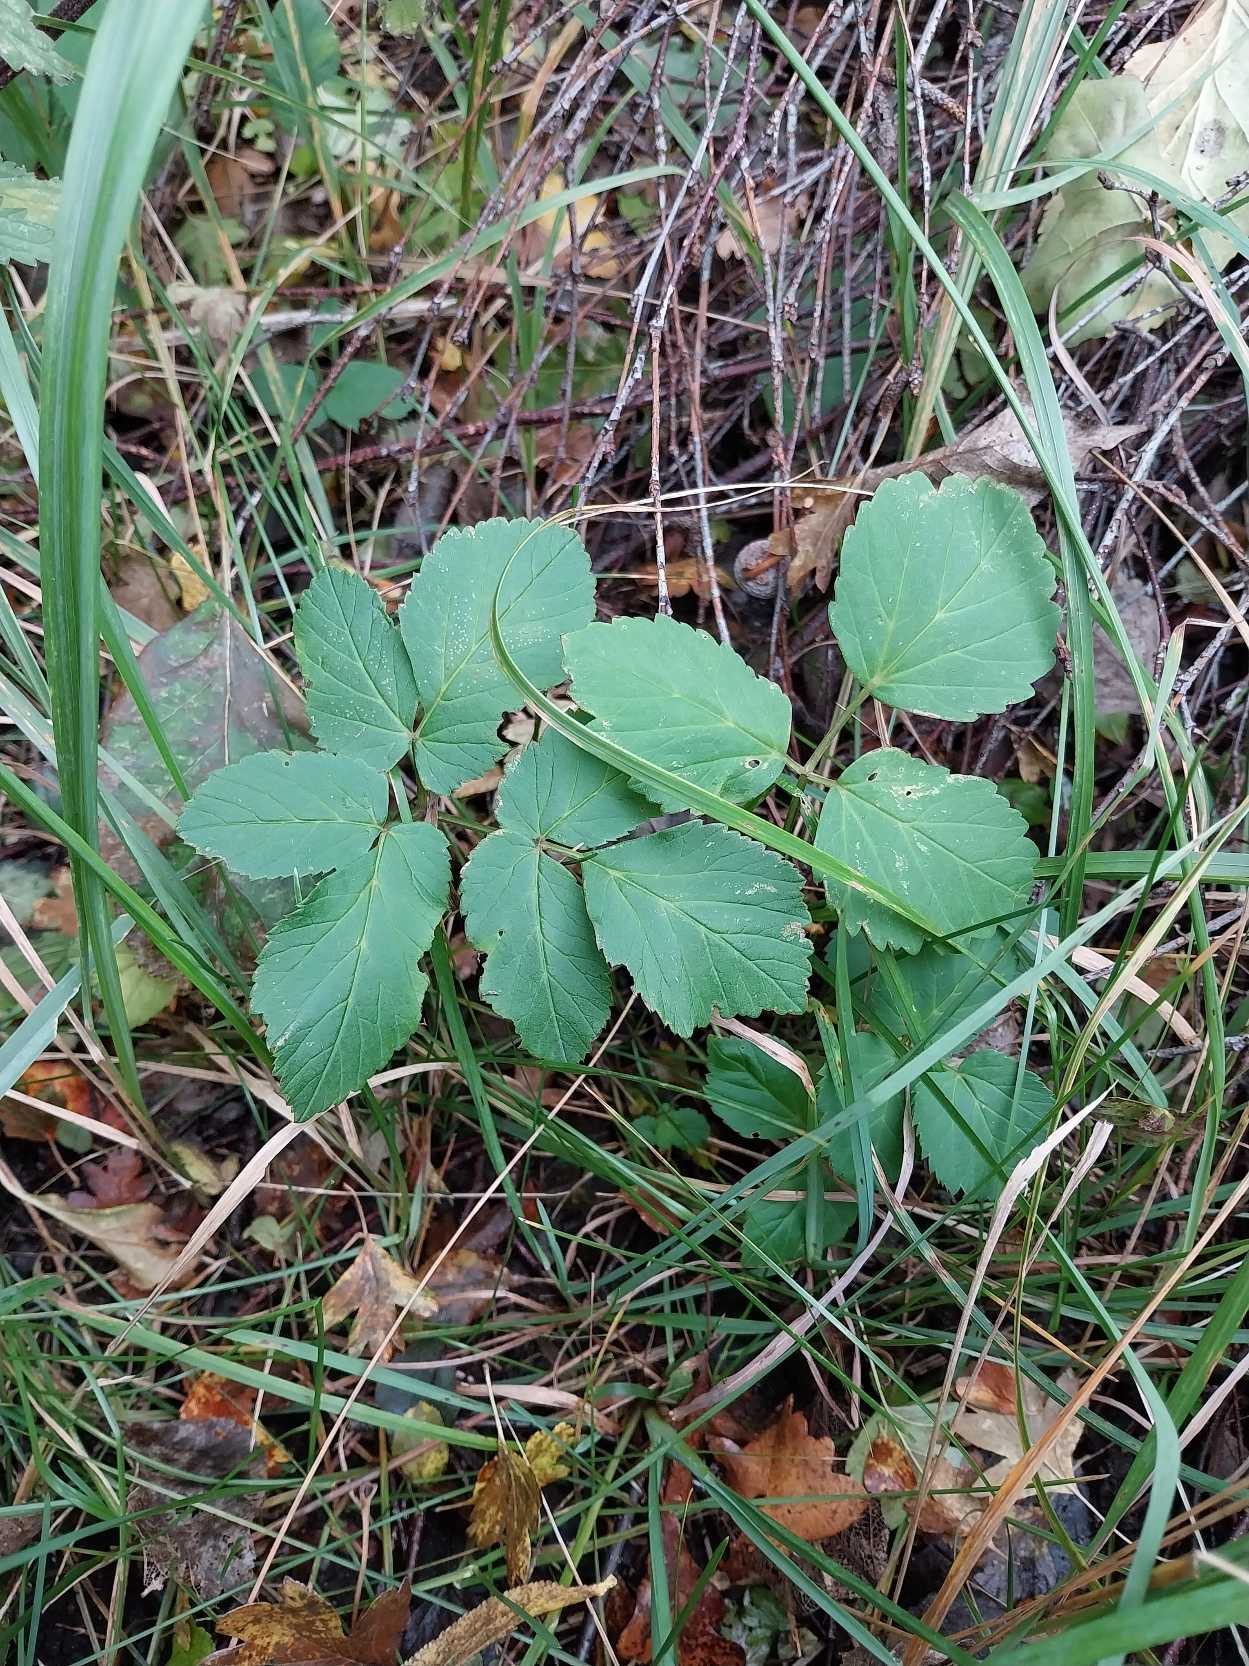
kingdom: Plantae
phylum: Tracheophyta
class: Magnoliopsida
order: Apiales
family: Apiaceae
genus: Aegopodium
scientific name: Aegopodium podagraria
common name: Skvalderkål
